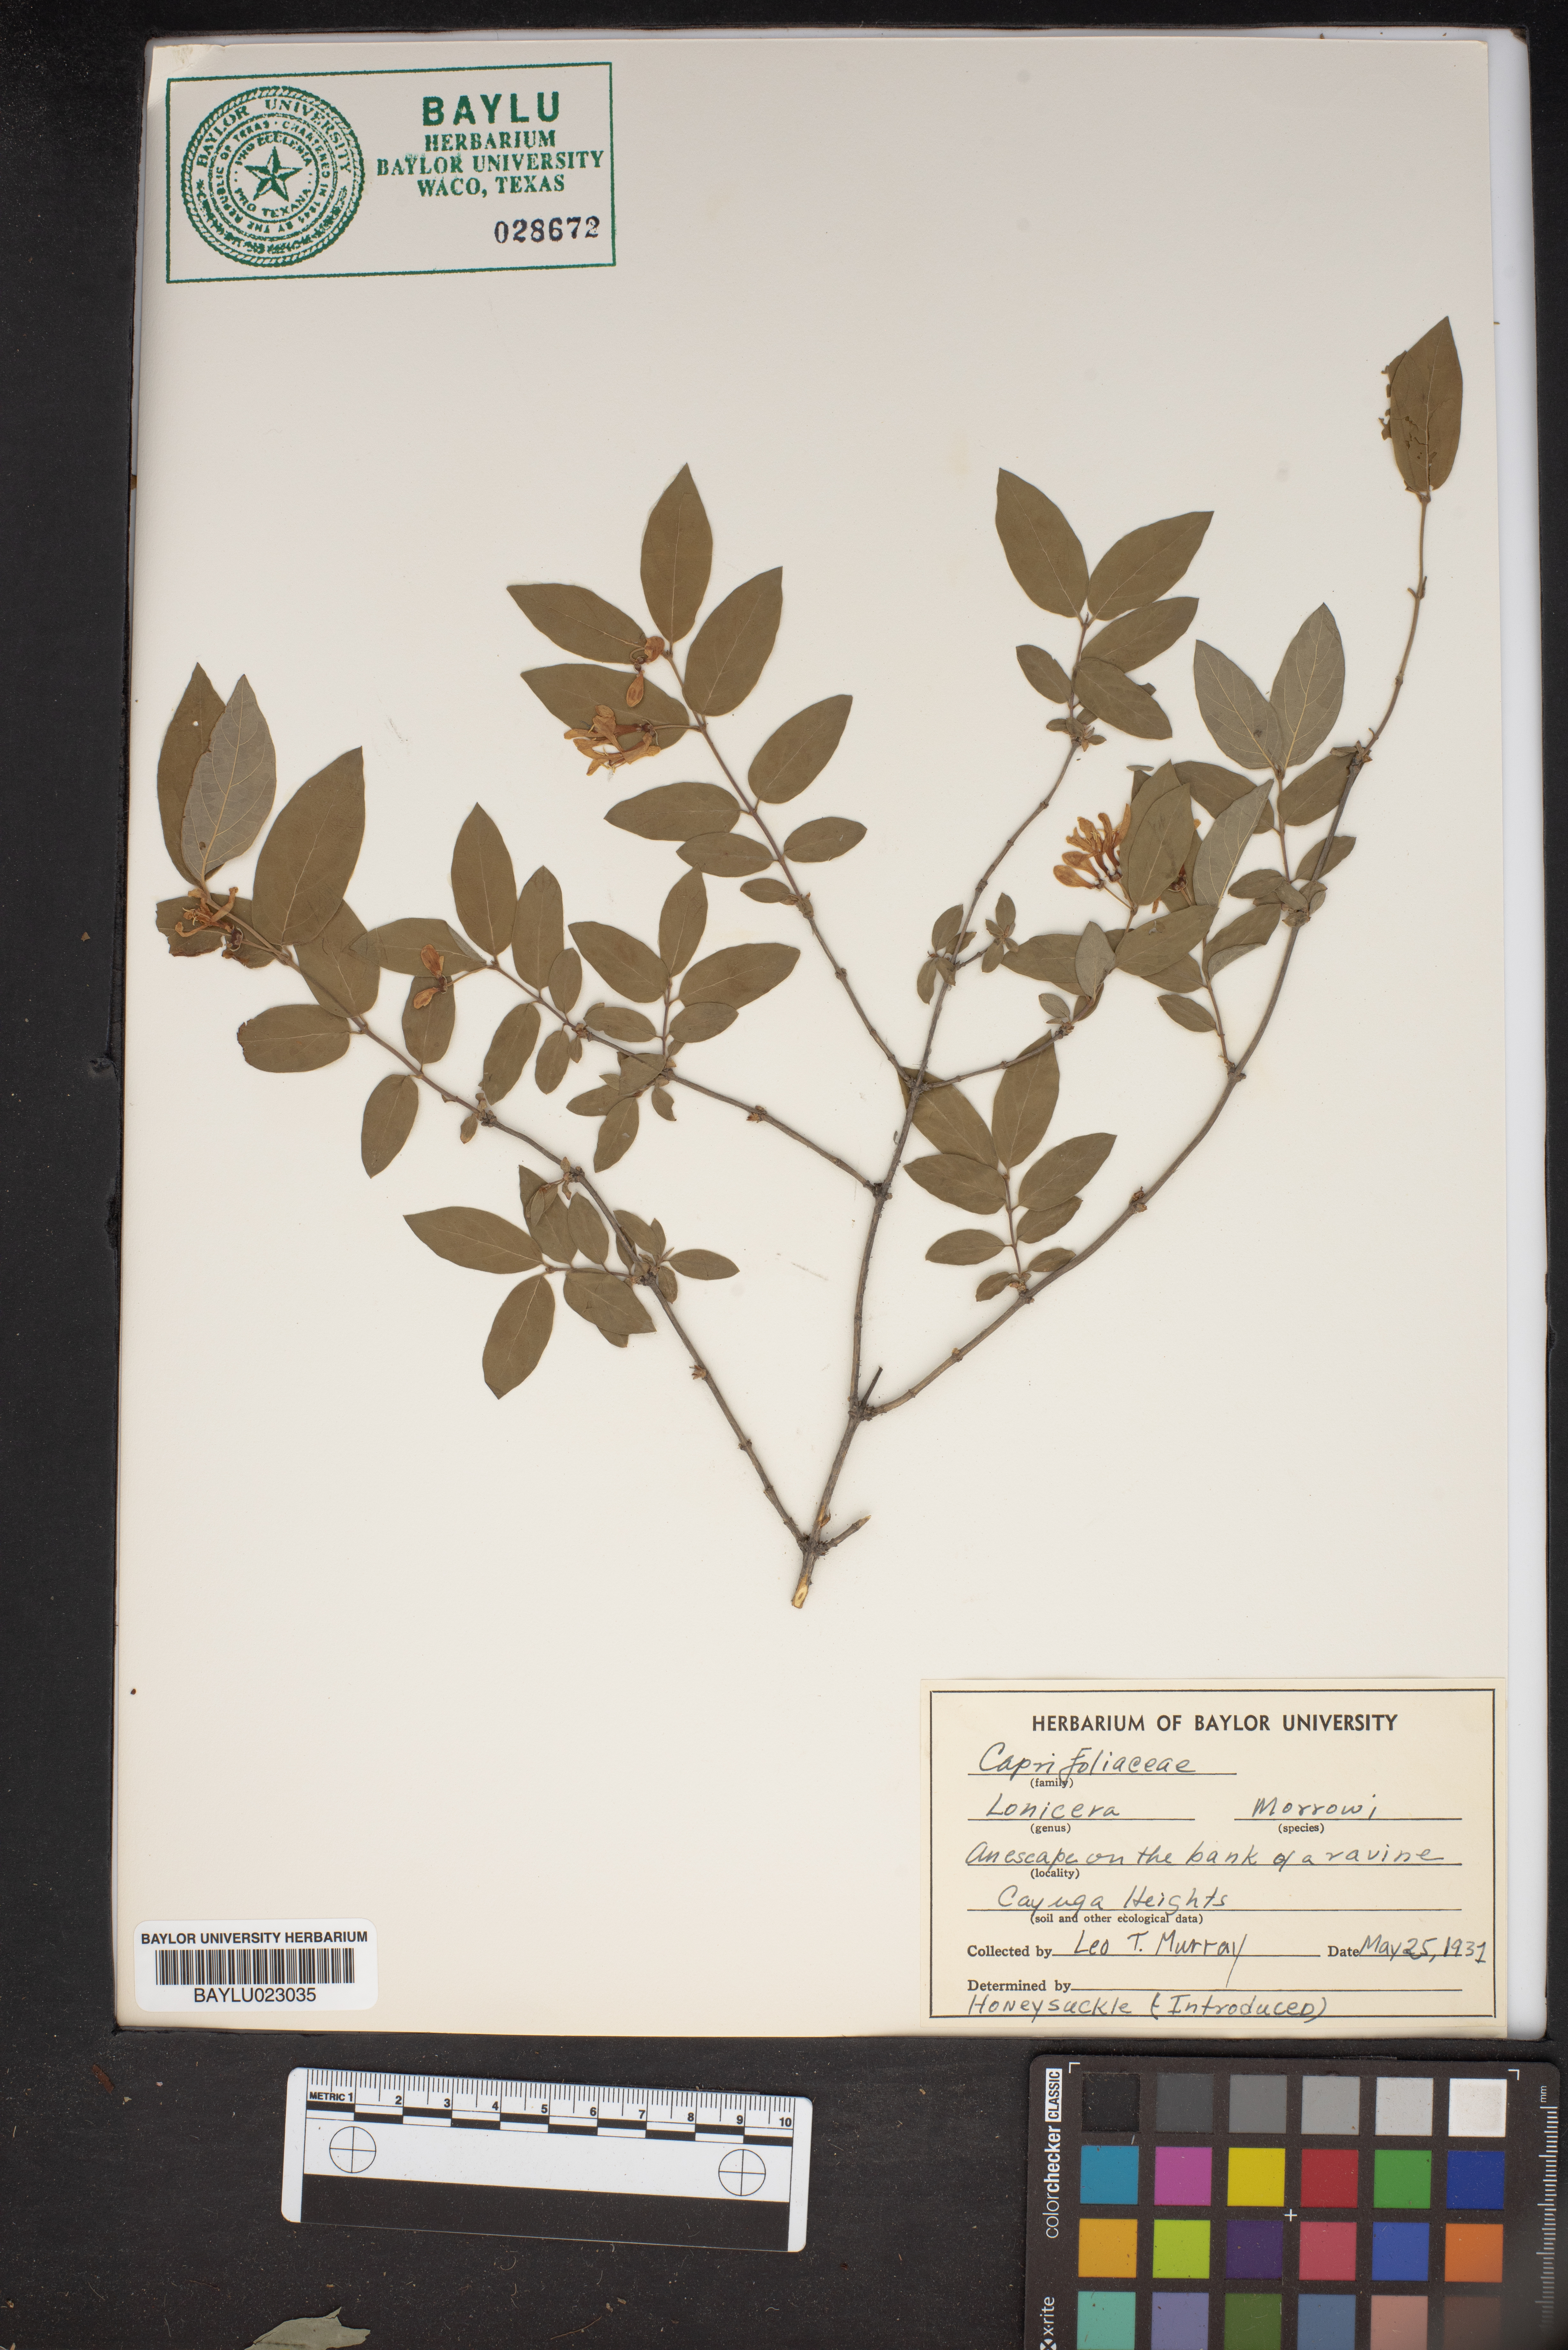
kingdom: Plantae
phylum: Tracheophyta
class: Magnoliopsida
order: Dipsacales
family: Caprifoliaceae
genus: Lonicera
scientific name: Lonicera morrowii
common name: Morrow's honeysuckle
